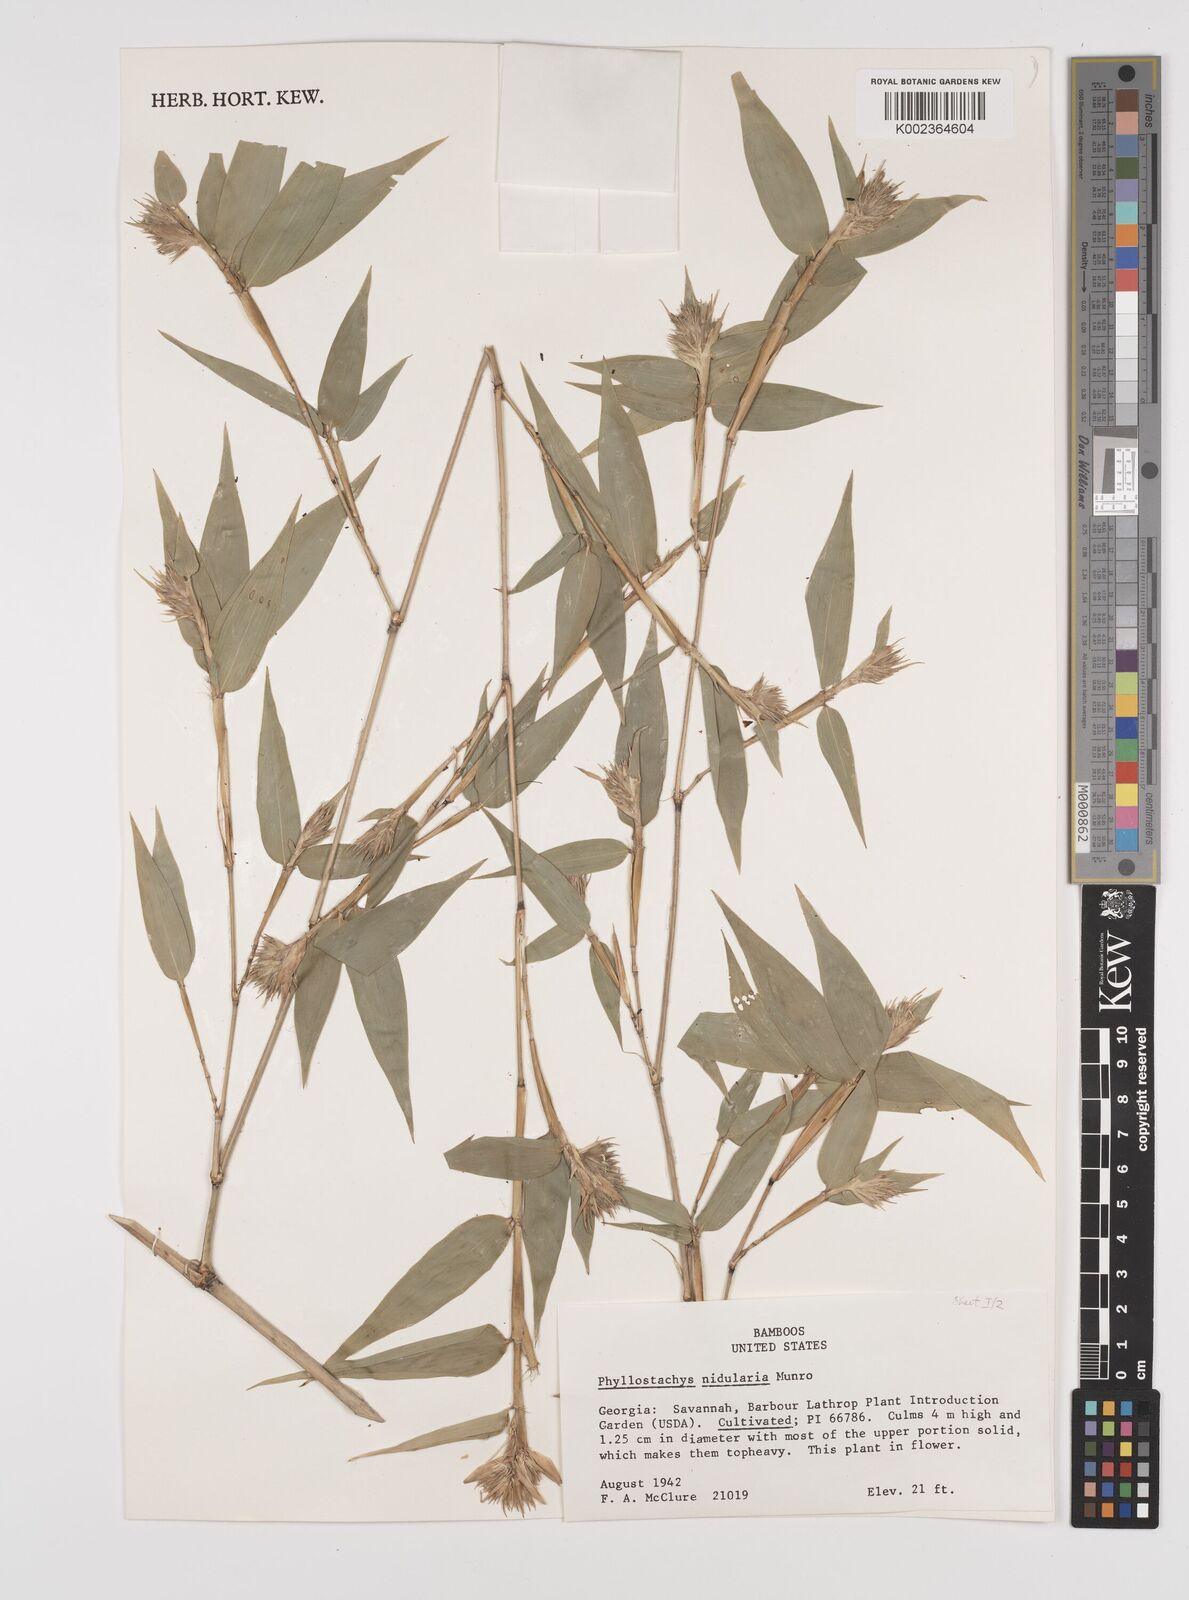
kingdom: Plantae
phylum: Tracheophyta
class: Liliopsida
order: Poales
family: Poaceae
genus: Phyllostachys
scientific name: Phyllostachys nidularia
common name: Broom bamboo
